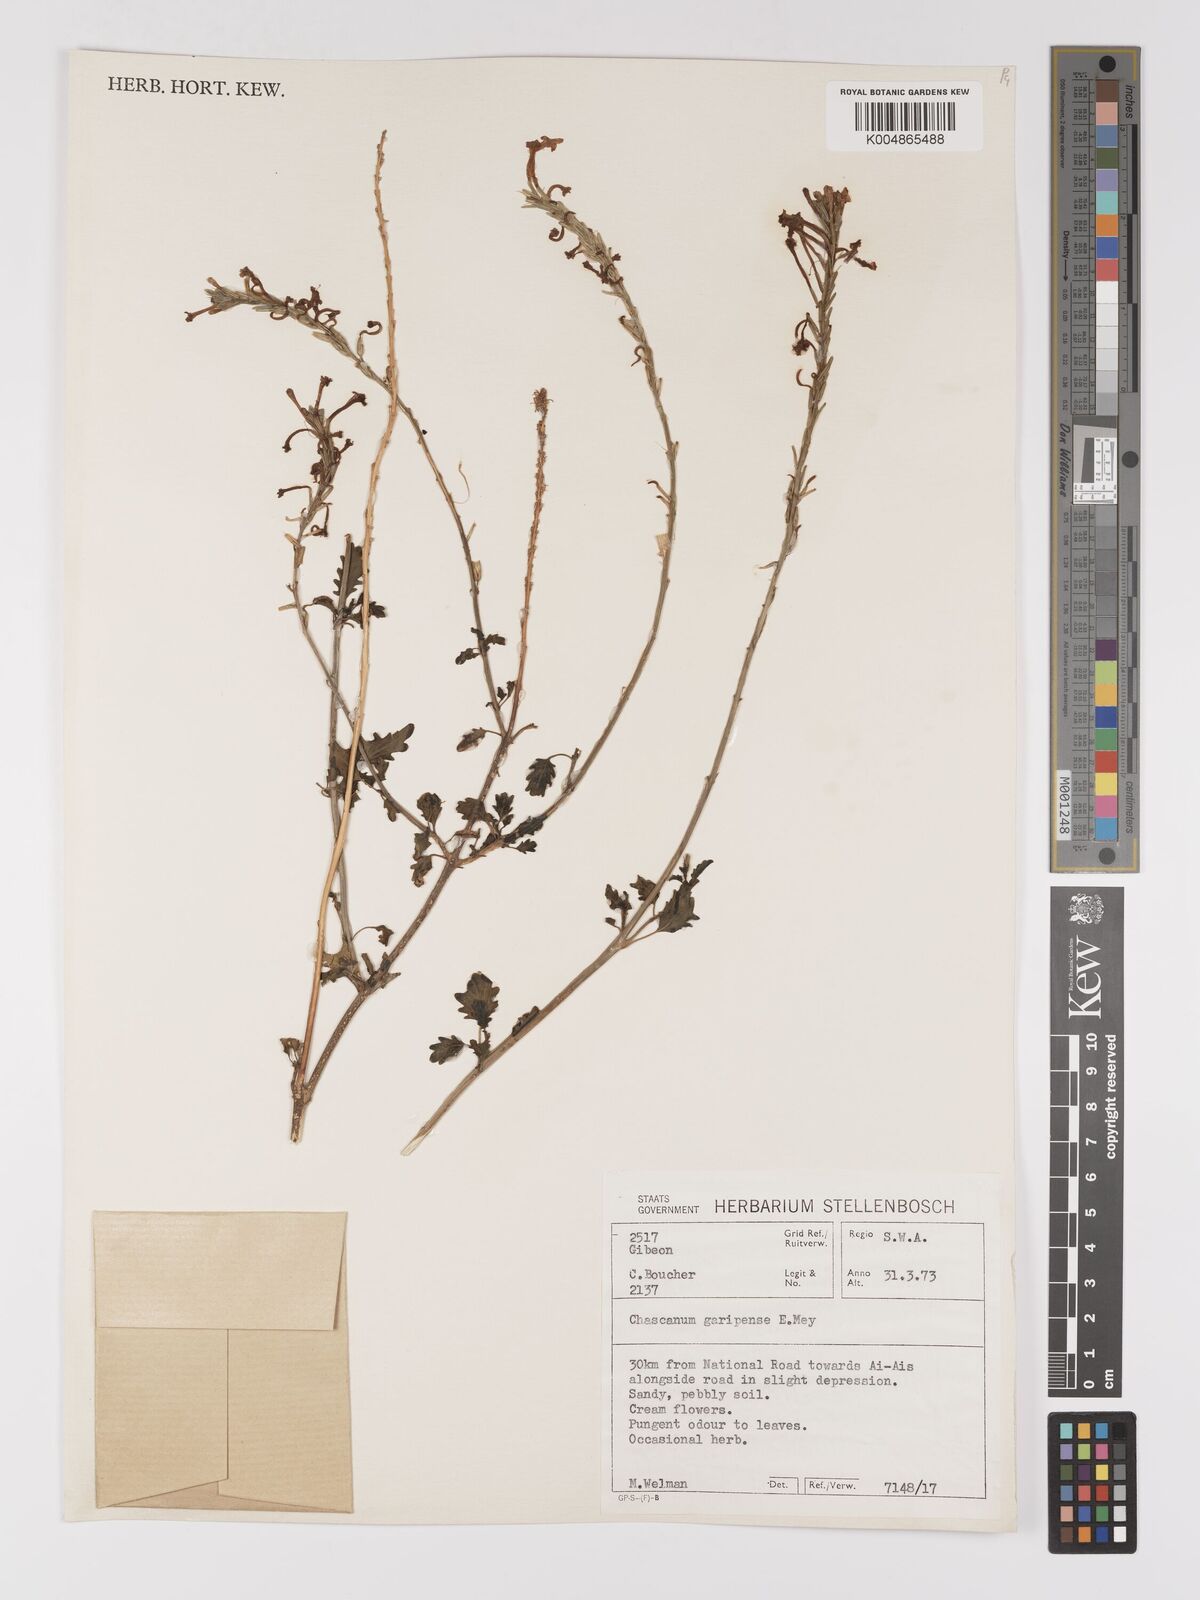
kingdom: Plantae
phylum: Tracheophyta
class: Magnoliopsida
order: Lamiales
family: Verbenaceae
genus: Chascanum
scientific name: Chascanum garipense
